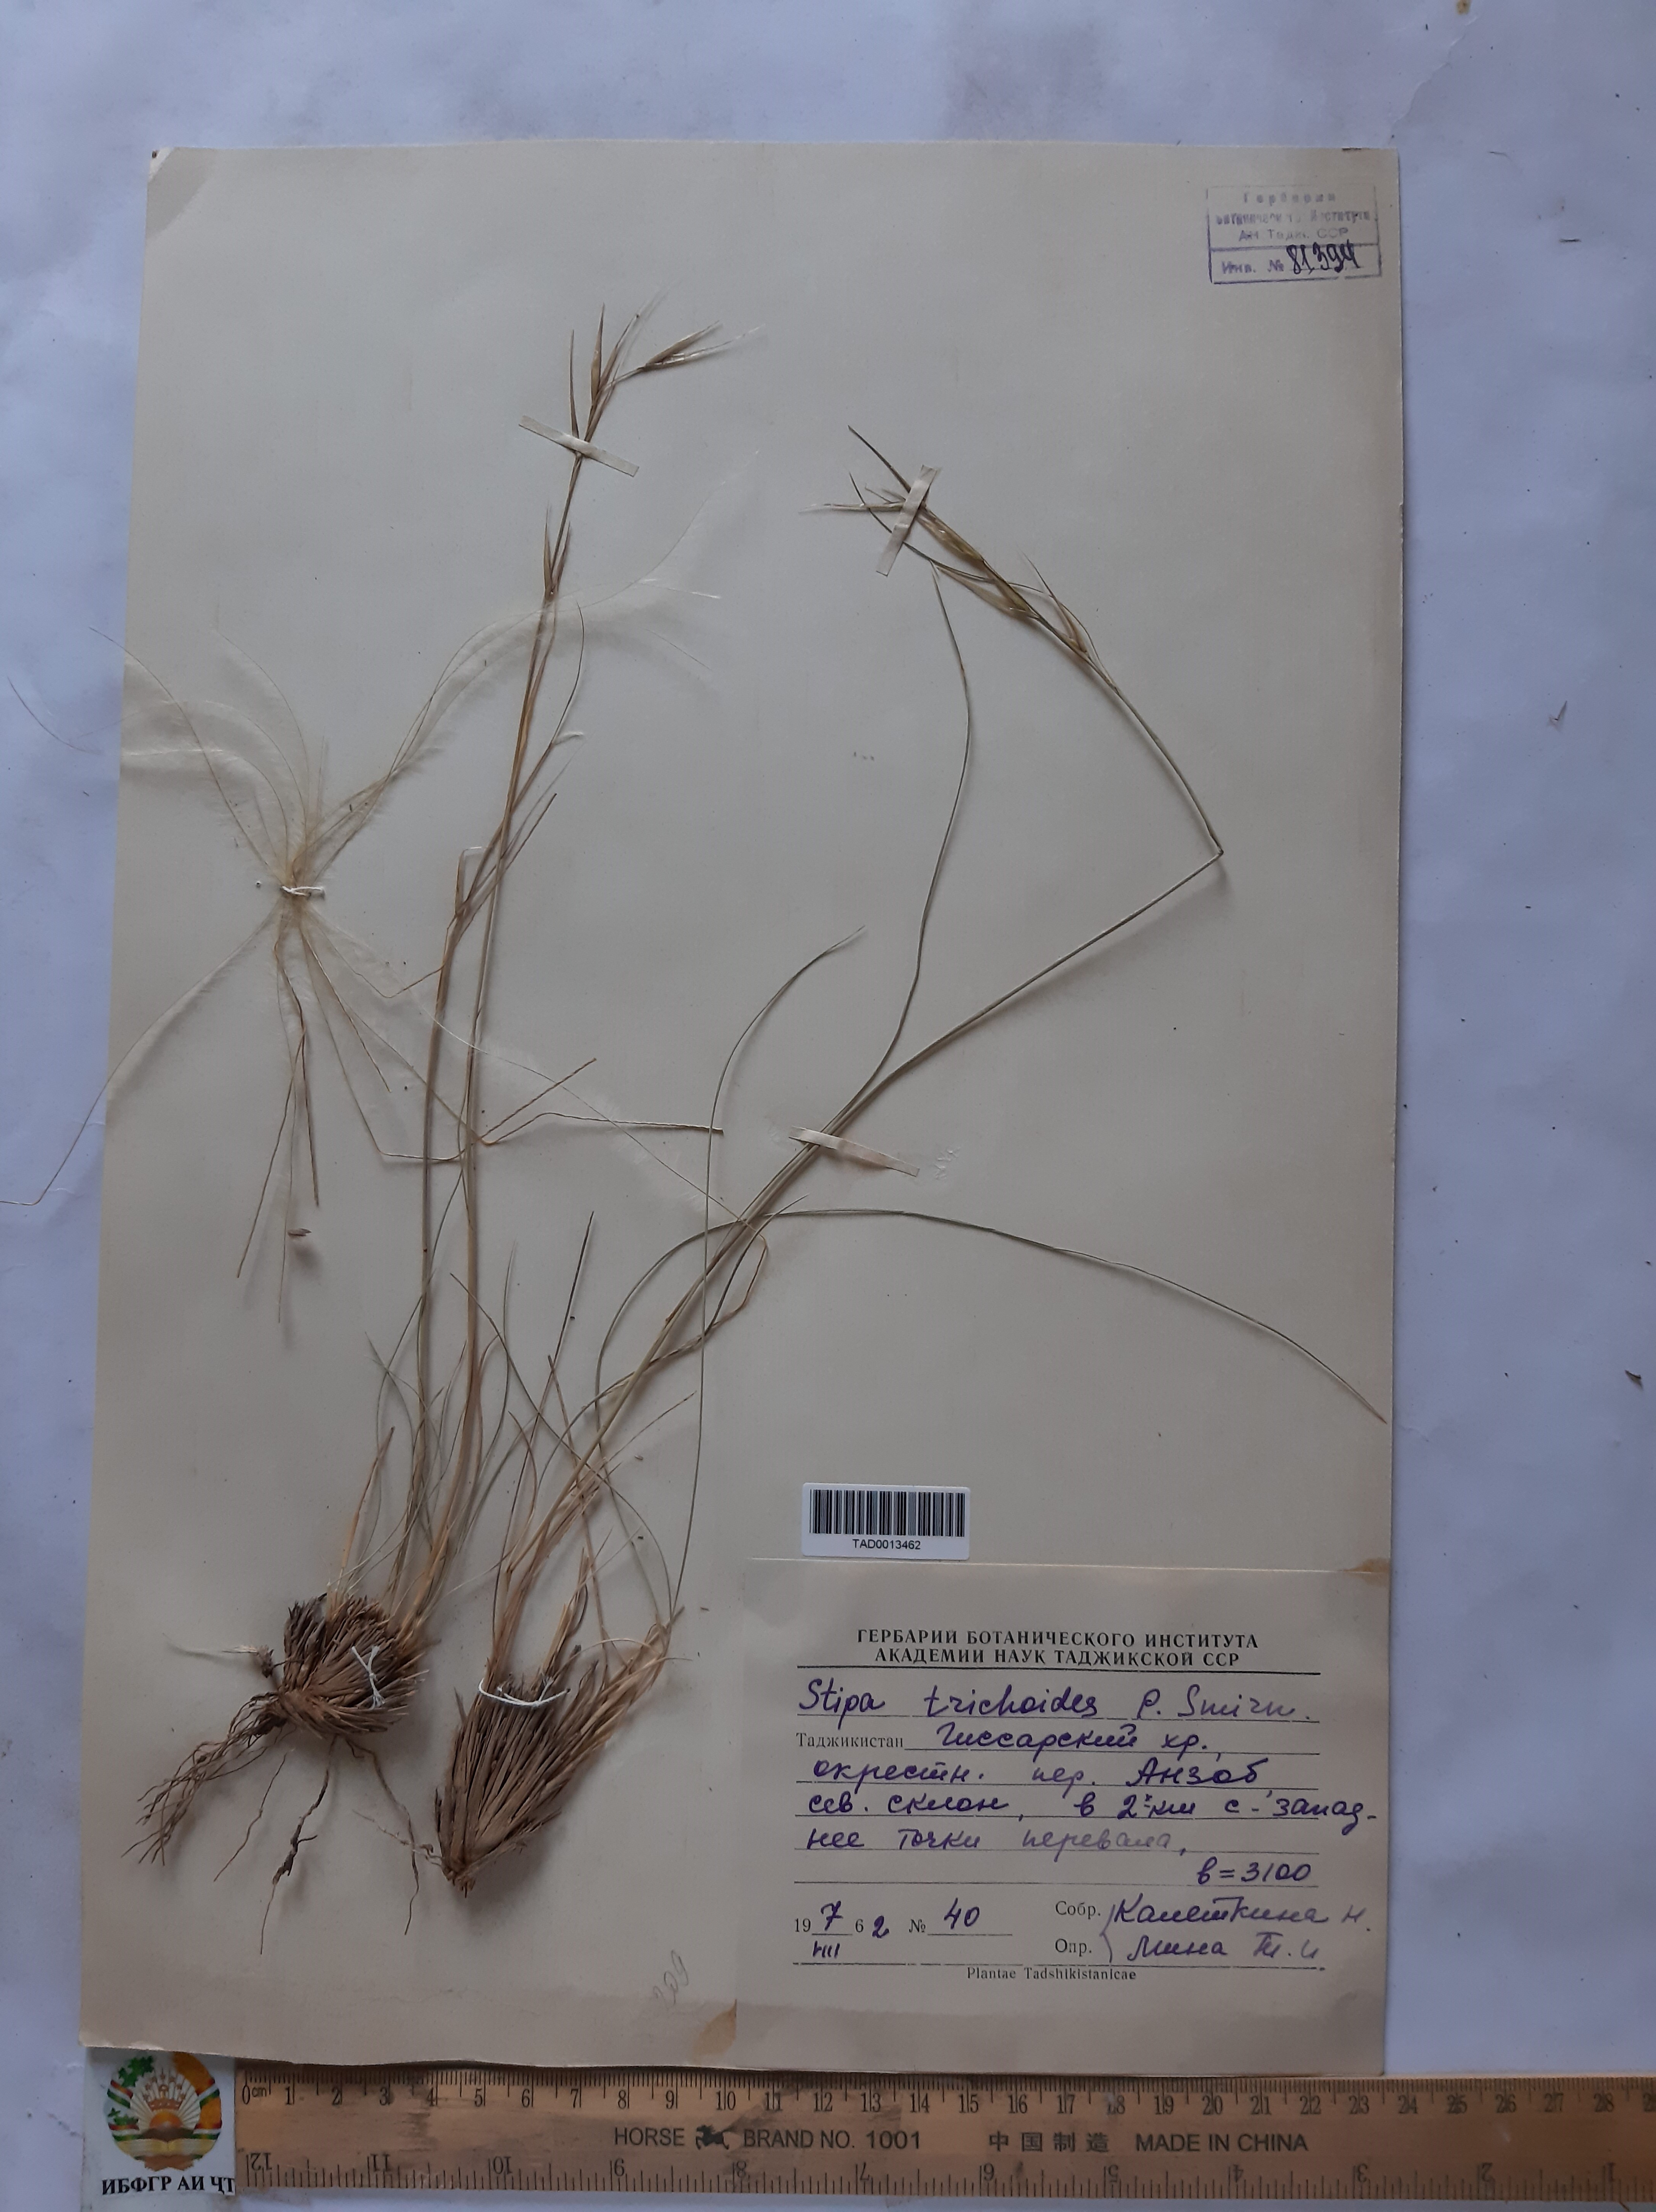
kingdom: Plantae
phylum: Tracheophyta
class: Liliopsida
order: Poales
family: Poaceae
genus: Stipa
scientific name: Stipa trichoides
